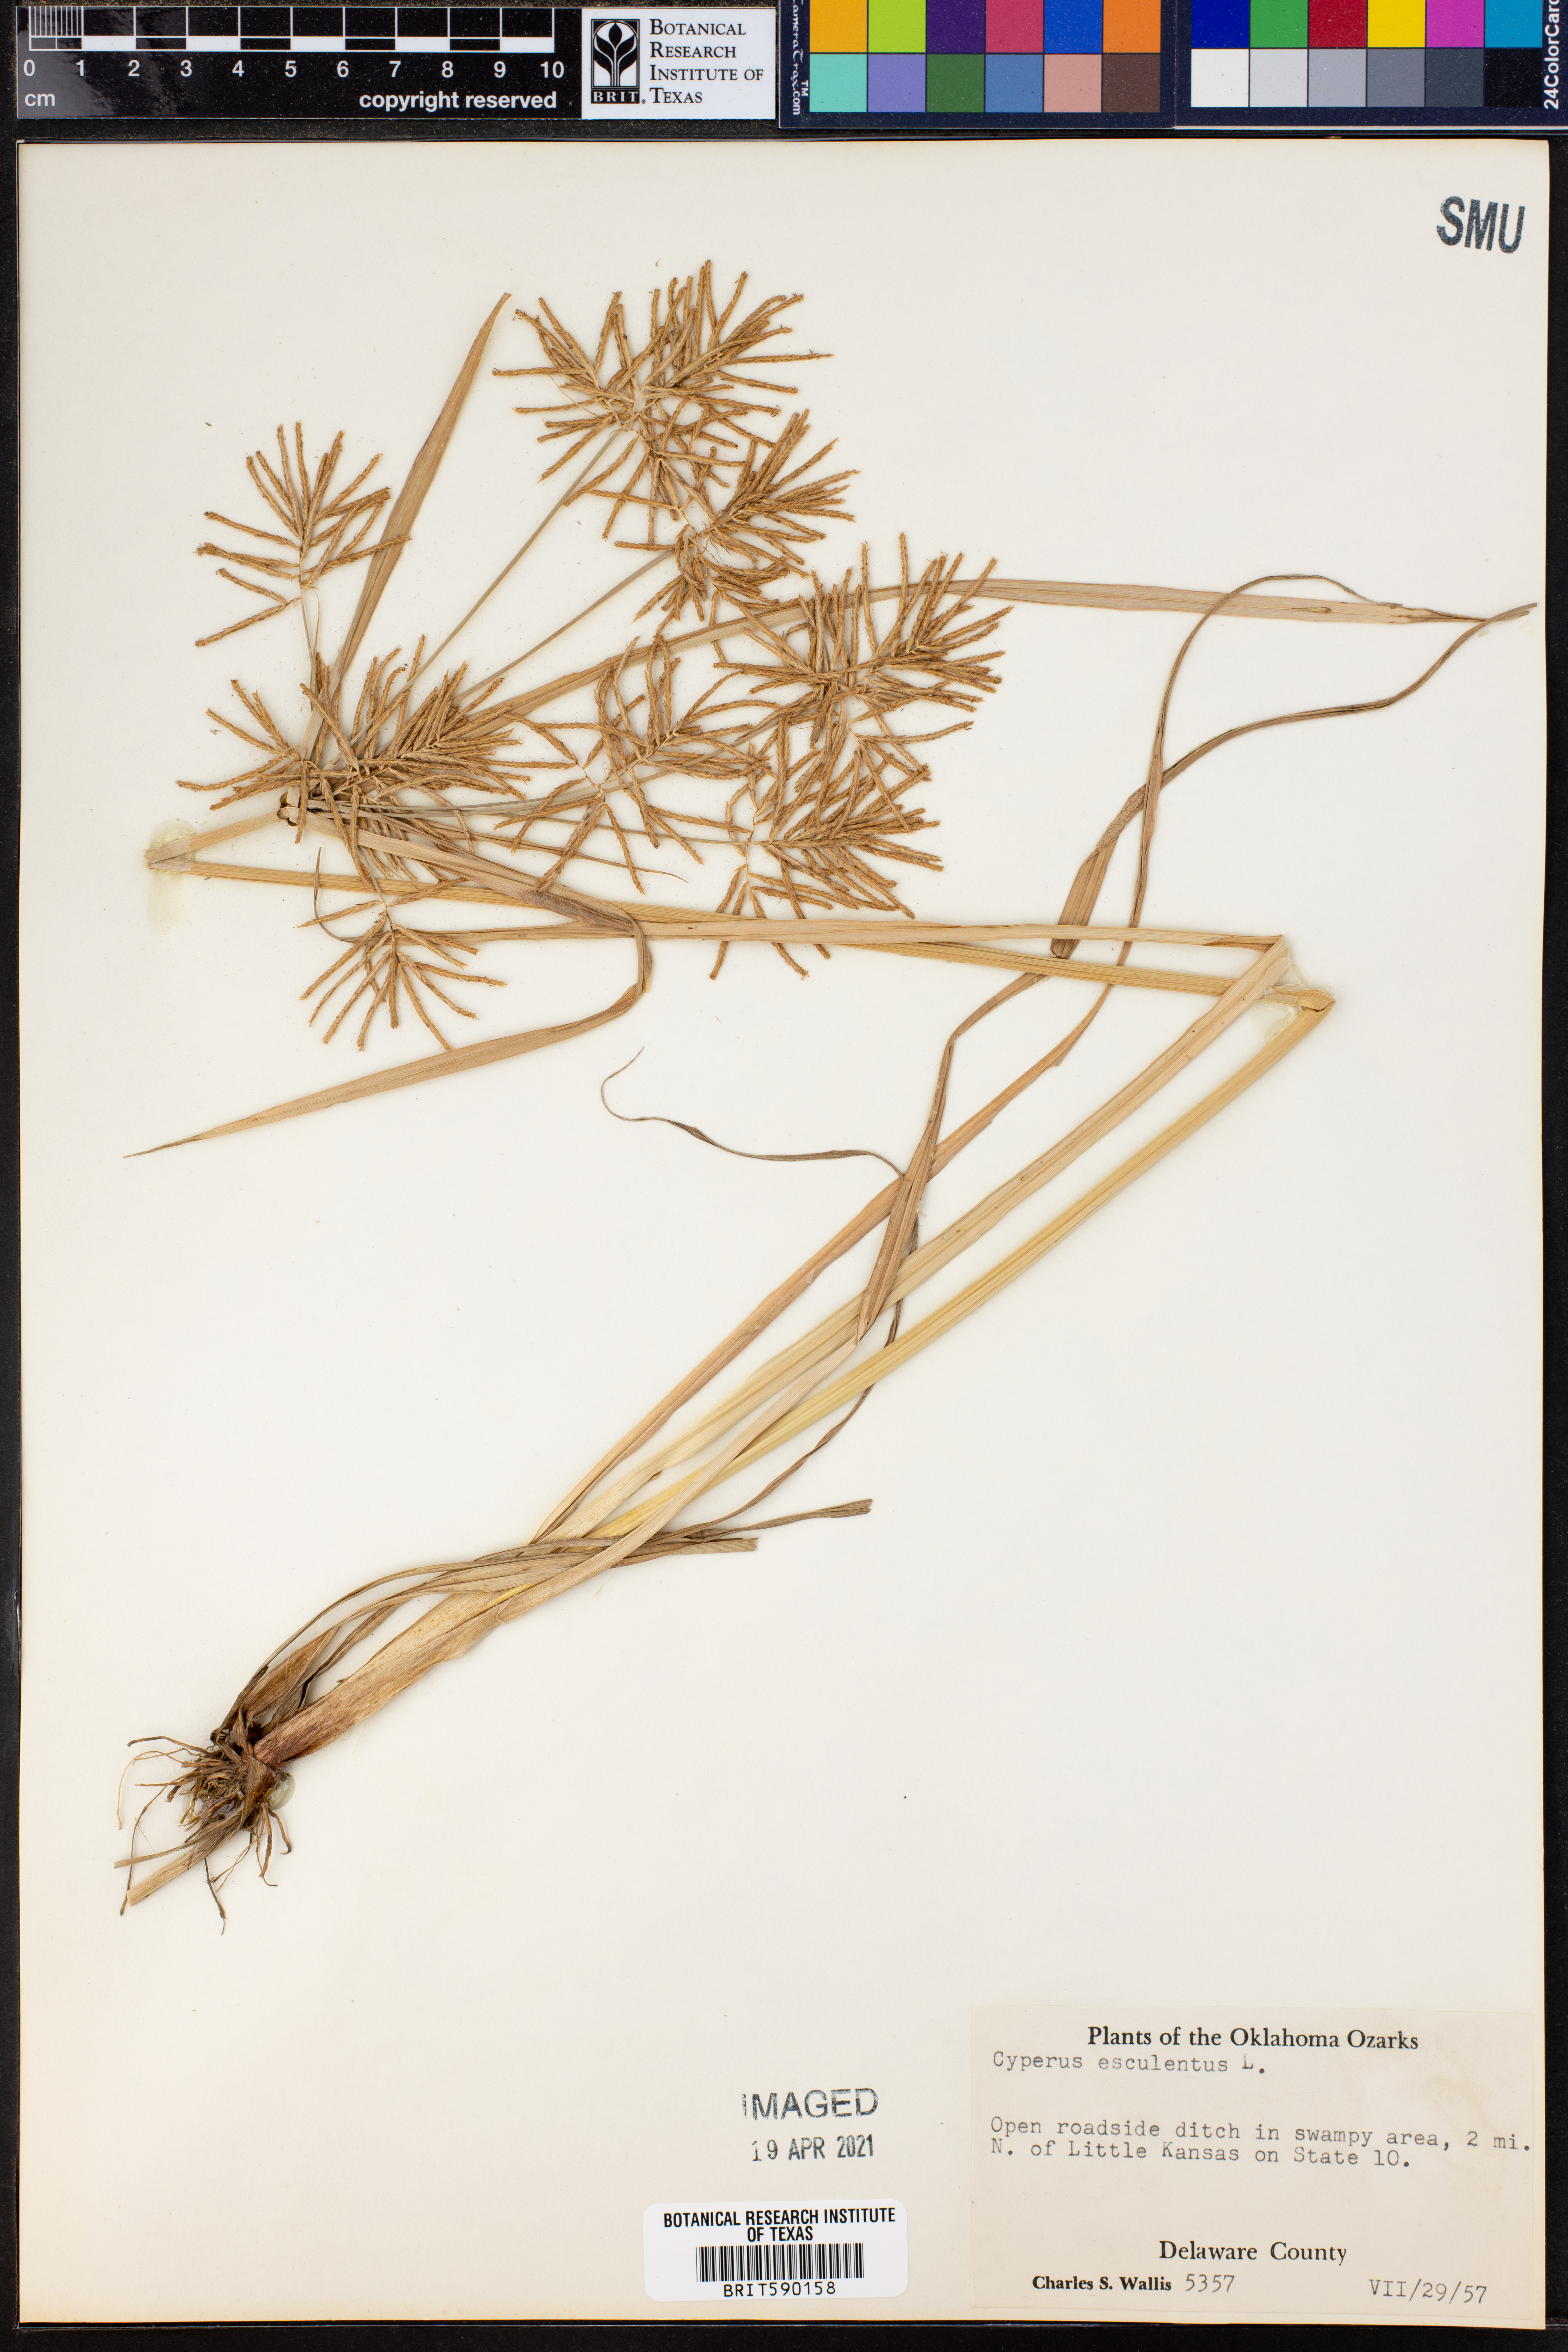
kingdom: Plantae
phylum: Tracheophyta
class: Liliopsida
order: Poales
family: Cyperaceae
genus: Cyperus
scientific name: Cyperus esculentus
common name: Yellow nutsedge
